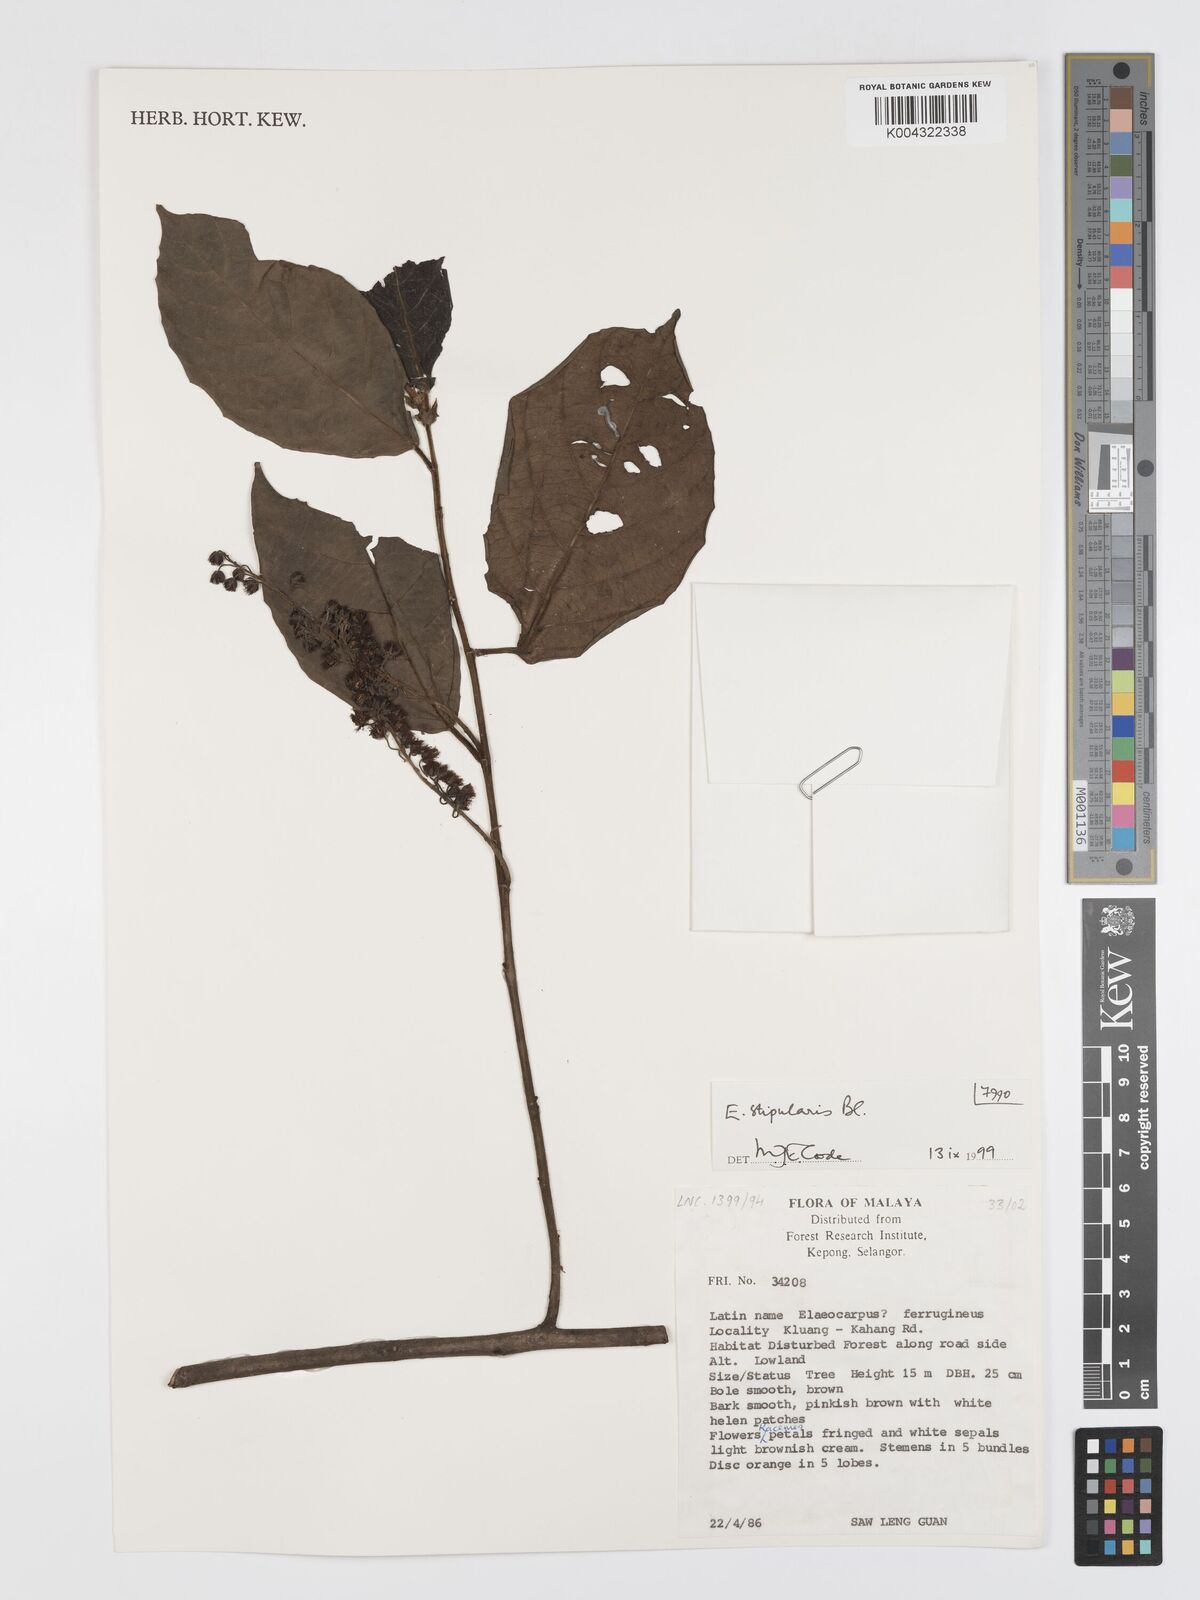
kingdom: Plantae
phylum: Tracheophyta
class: Magnoliopsida
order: Oxalidales
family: Elaeocarpaceae
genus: Elaeocarpus
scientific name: Elaeocarpus stipularis
